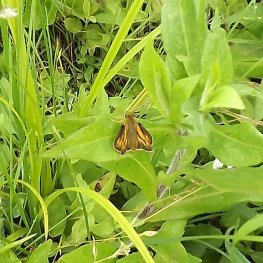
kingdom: Animalia
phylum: Arthropoda
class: Insecta
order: Lepidoptera
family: Hesperiidae
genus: Polites
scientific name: Polites
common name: Long Dash Skipper
